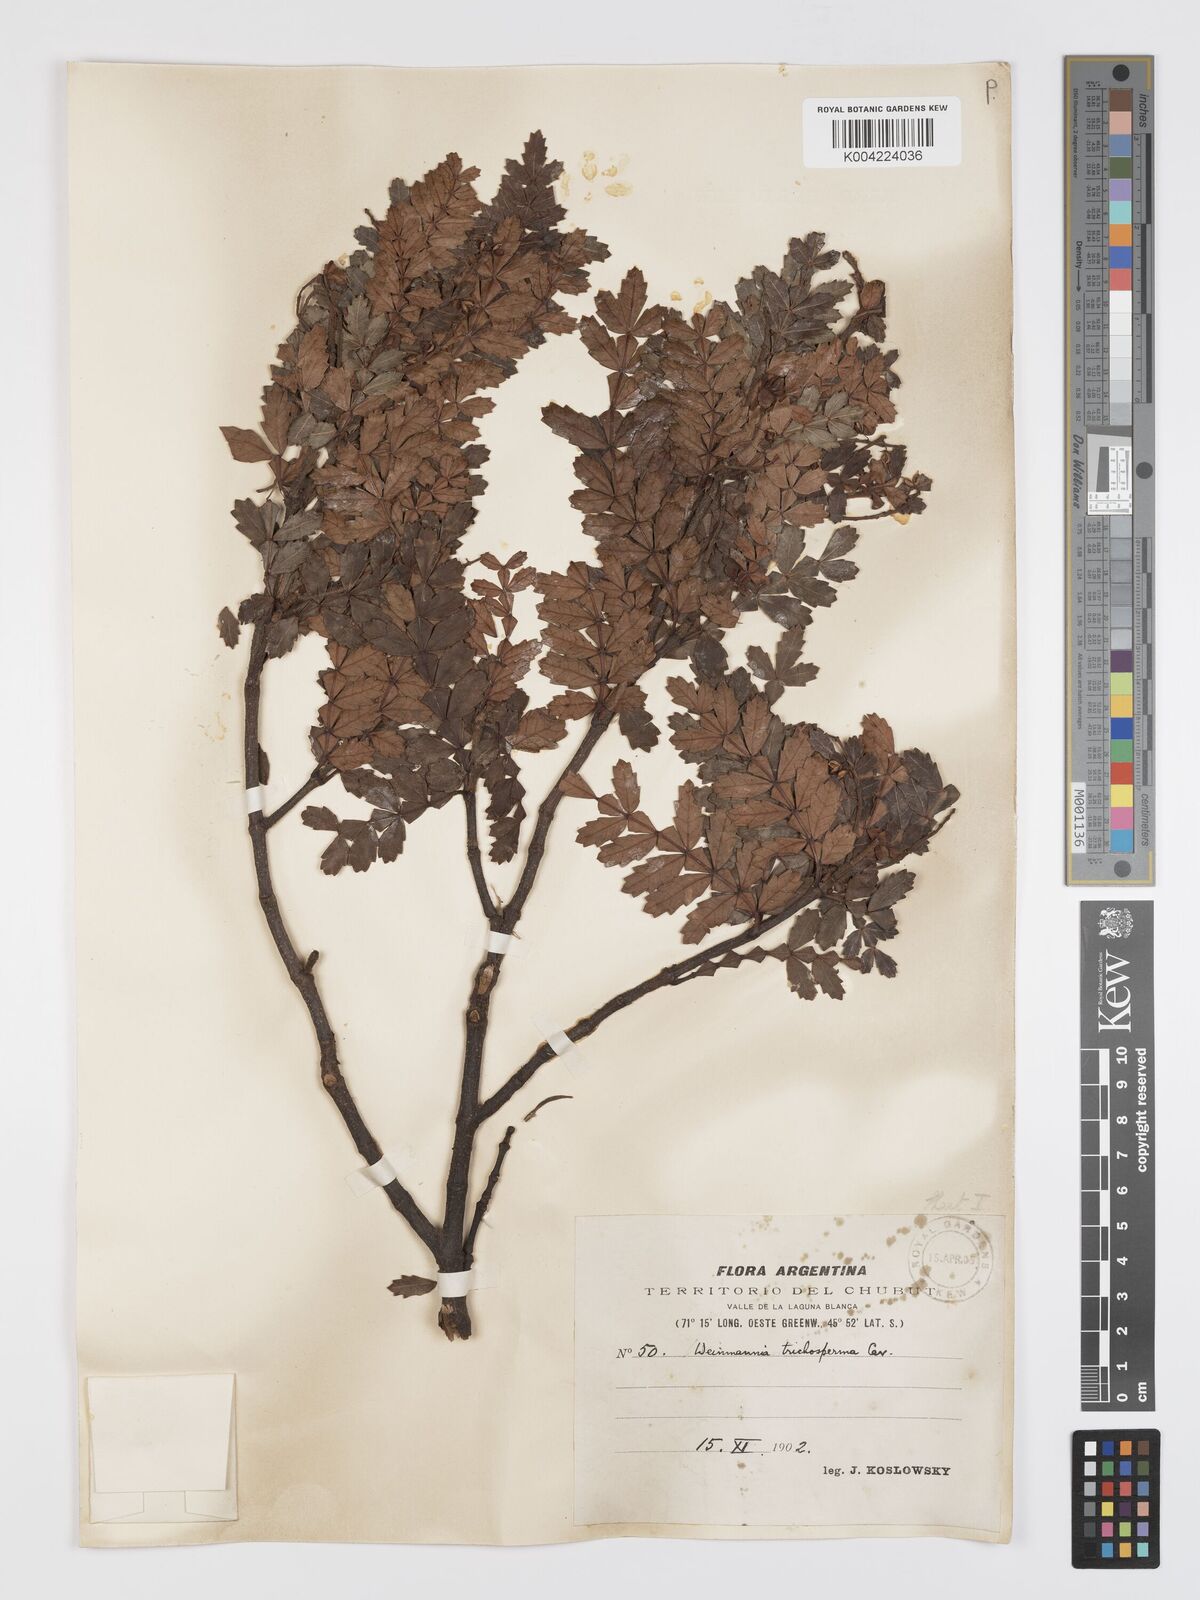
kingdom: Plantae
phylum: Tracheophyta
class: Magnoliopsida
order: Oxalidales
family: Cunoniaceae
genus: Weinmannia
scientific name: Weinmannia trichosperma
